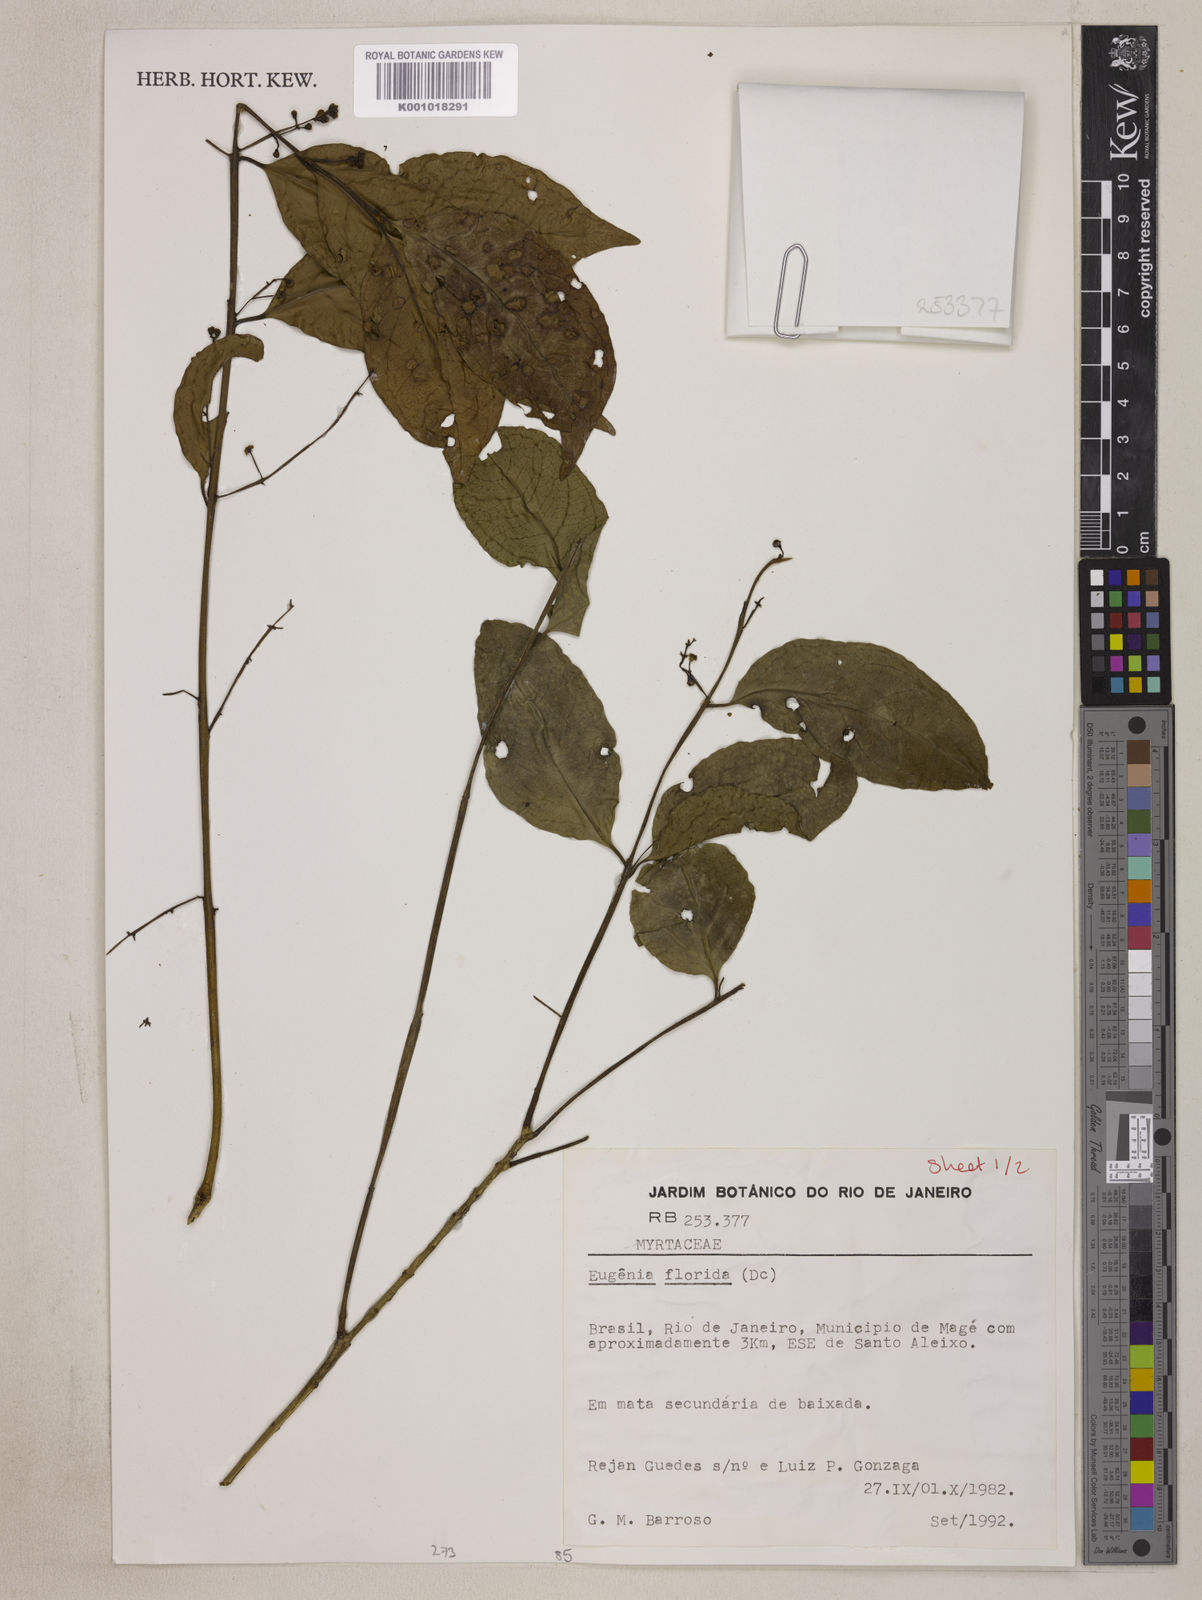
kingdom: Plantae
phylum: Tracheophyta
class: Magnoliopsida
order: Myrtales
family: Myrtaceae
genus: Eugenia
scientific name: Eugenia florida
